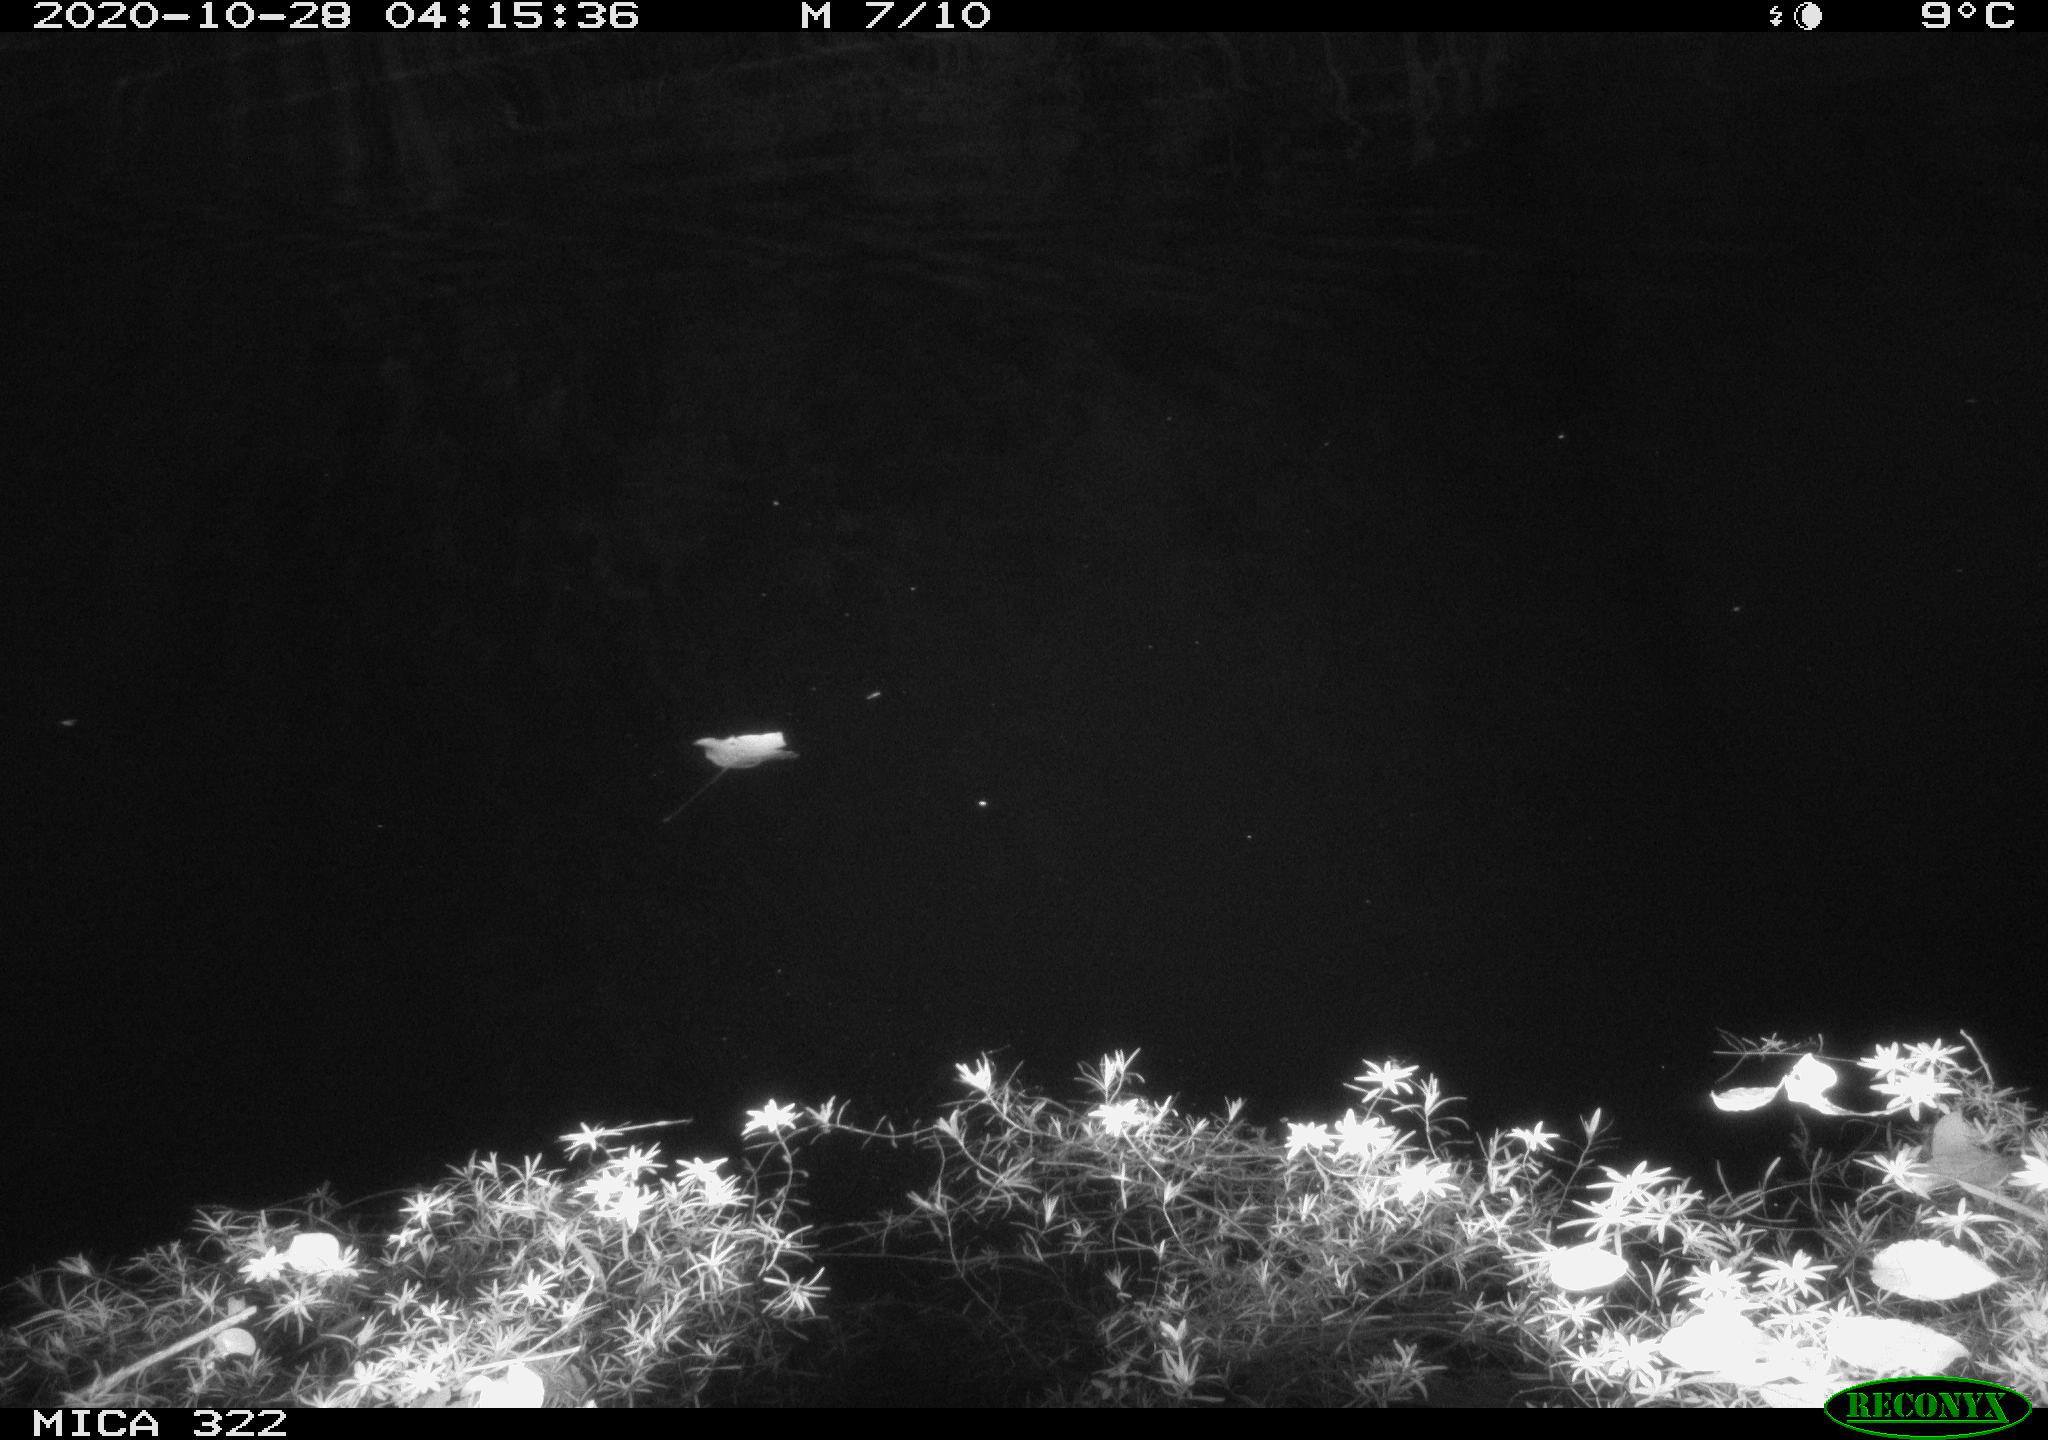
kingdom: Animalia
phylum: Chordata
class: Mammalia
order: Rodentia
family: Muridae
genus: Rattus
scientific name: Rattus norvegicus
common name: Brown rat
